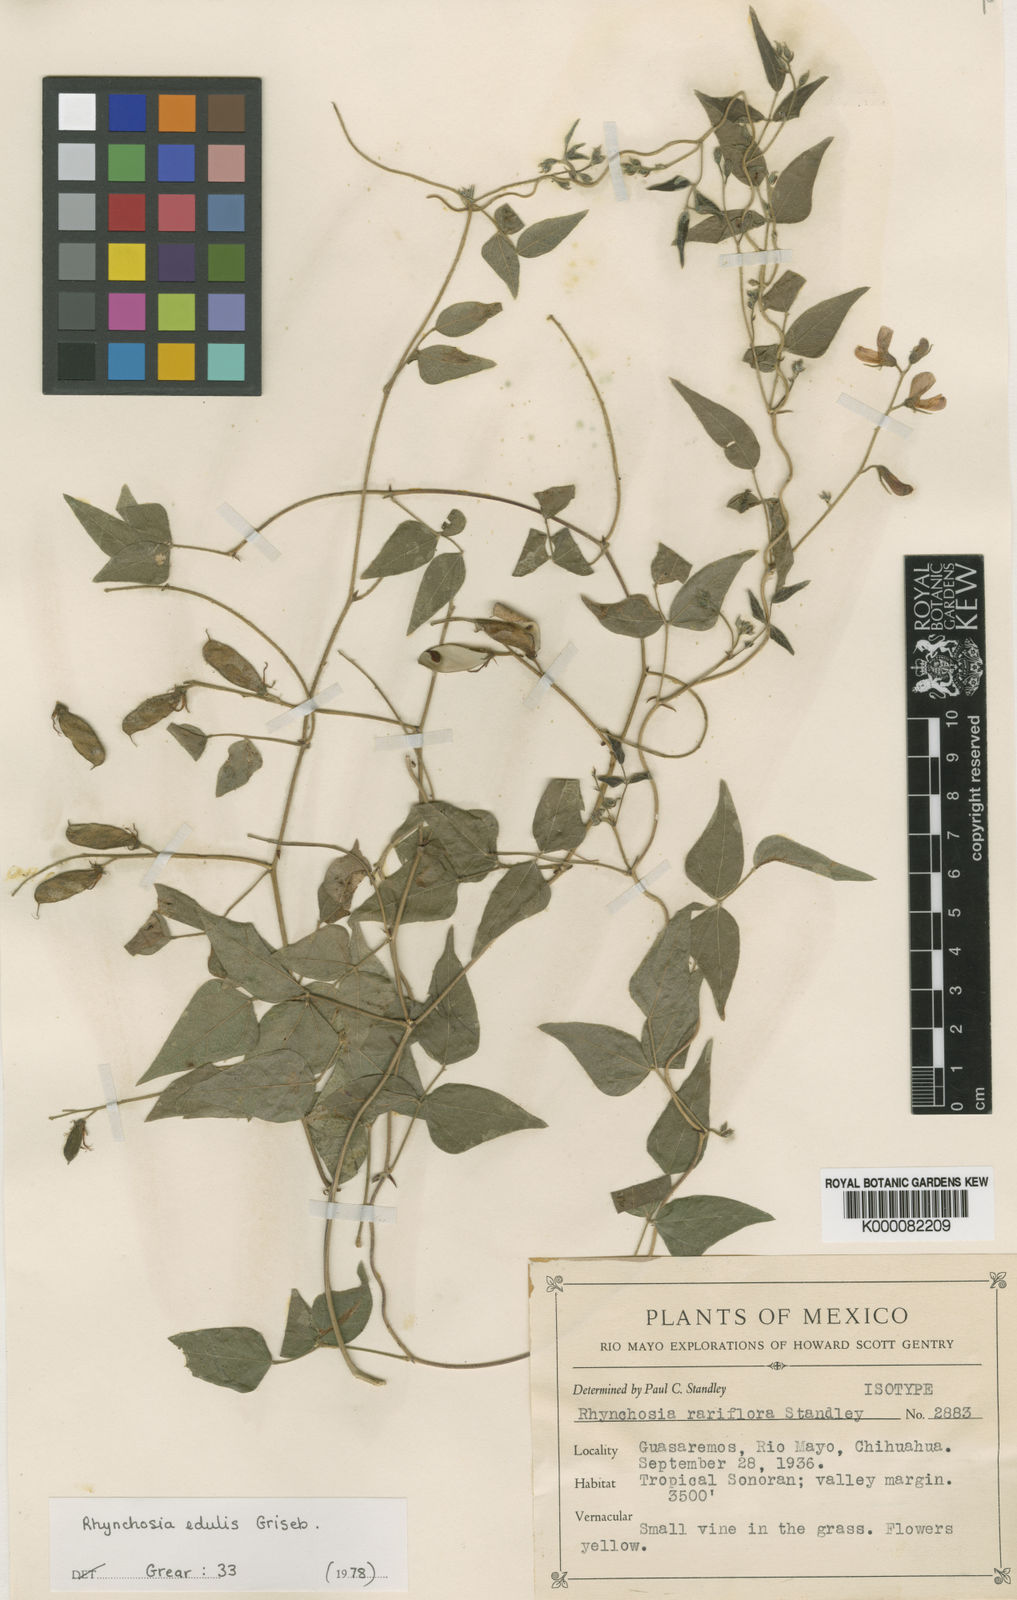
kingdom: Plantae
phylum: Tracheophyta
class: Magnoliopsida
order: Fabales
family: Fabaceae
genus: Rhynchosia
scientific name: Rhynchosia edulis
